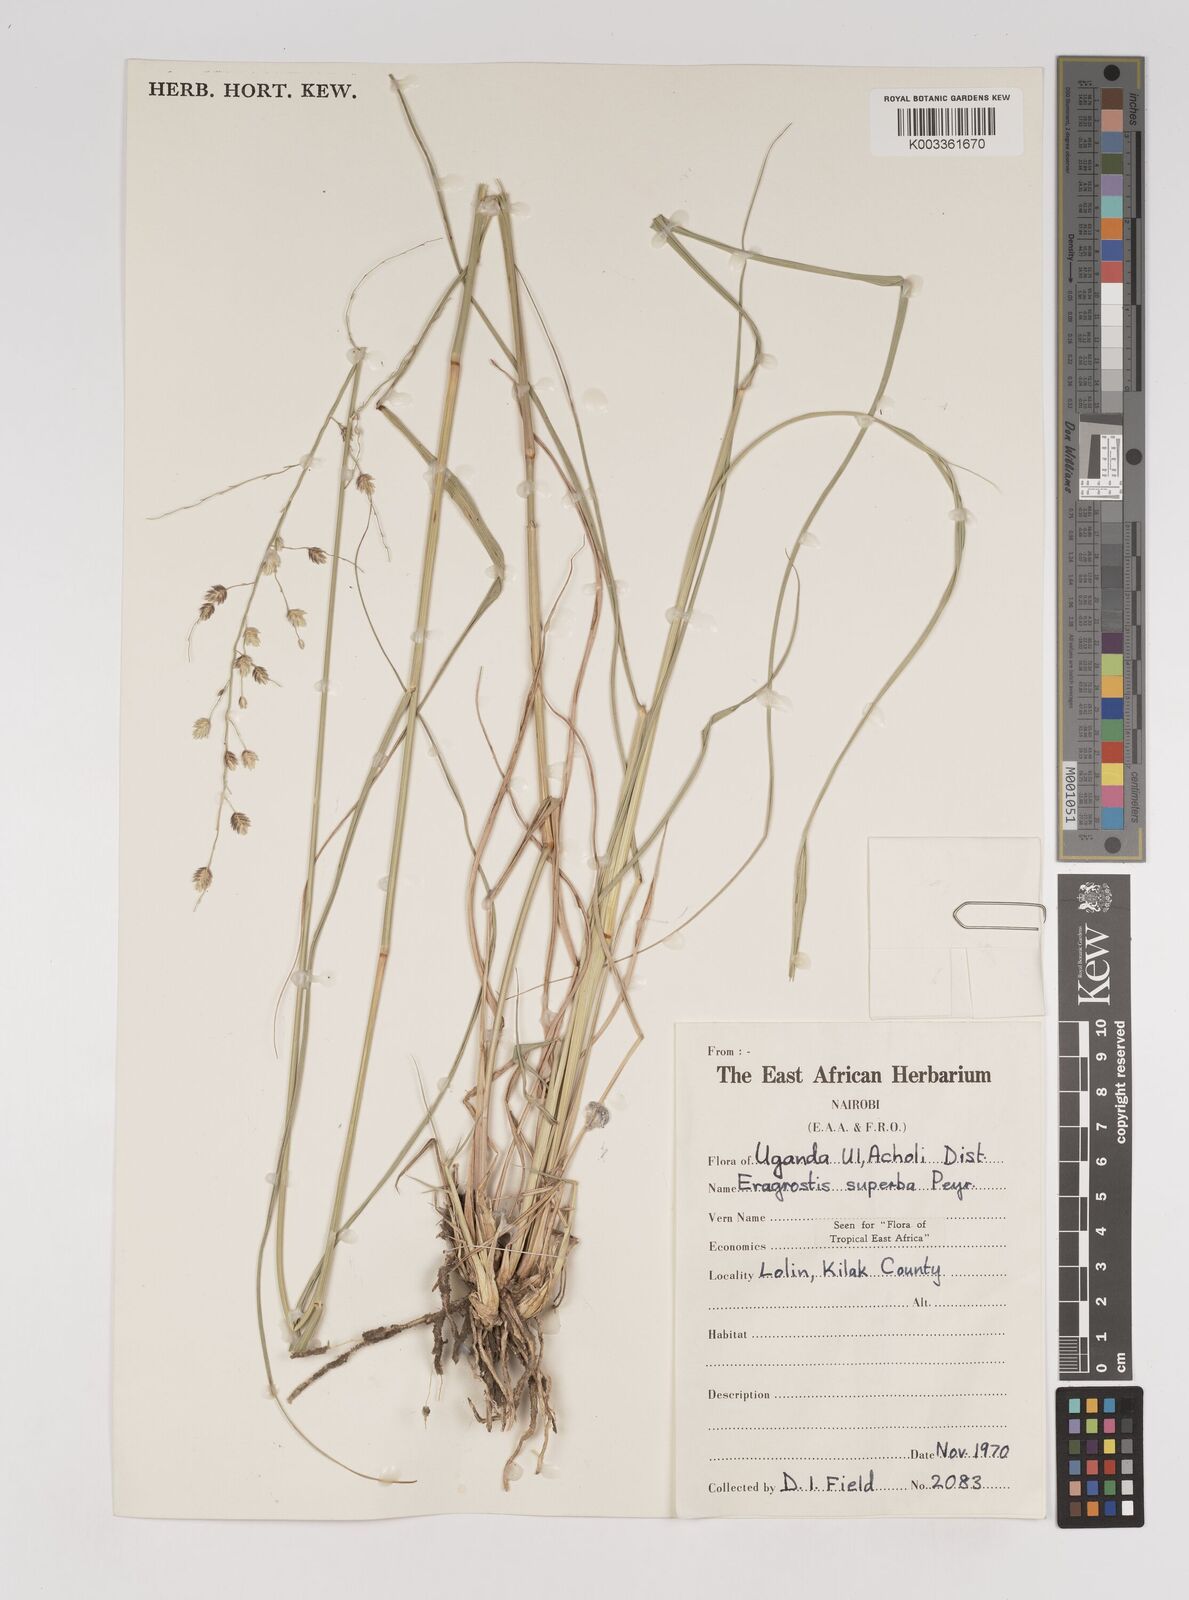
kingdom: Plantae
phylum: Tracheophyta
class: Liliopsida
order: Poales
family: Poaceae
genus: Eragrostis
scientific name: Eragrostis superba
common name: Wilman lovegrass
